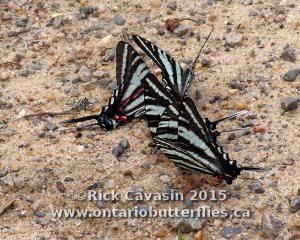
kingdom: Animalia
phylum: Arthropoda
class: Insecta
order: Lepidoptera
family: Papilionidae
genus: Protographium
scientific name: Protographium marcellus
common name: Zebra Swallowtail
